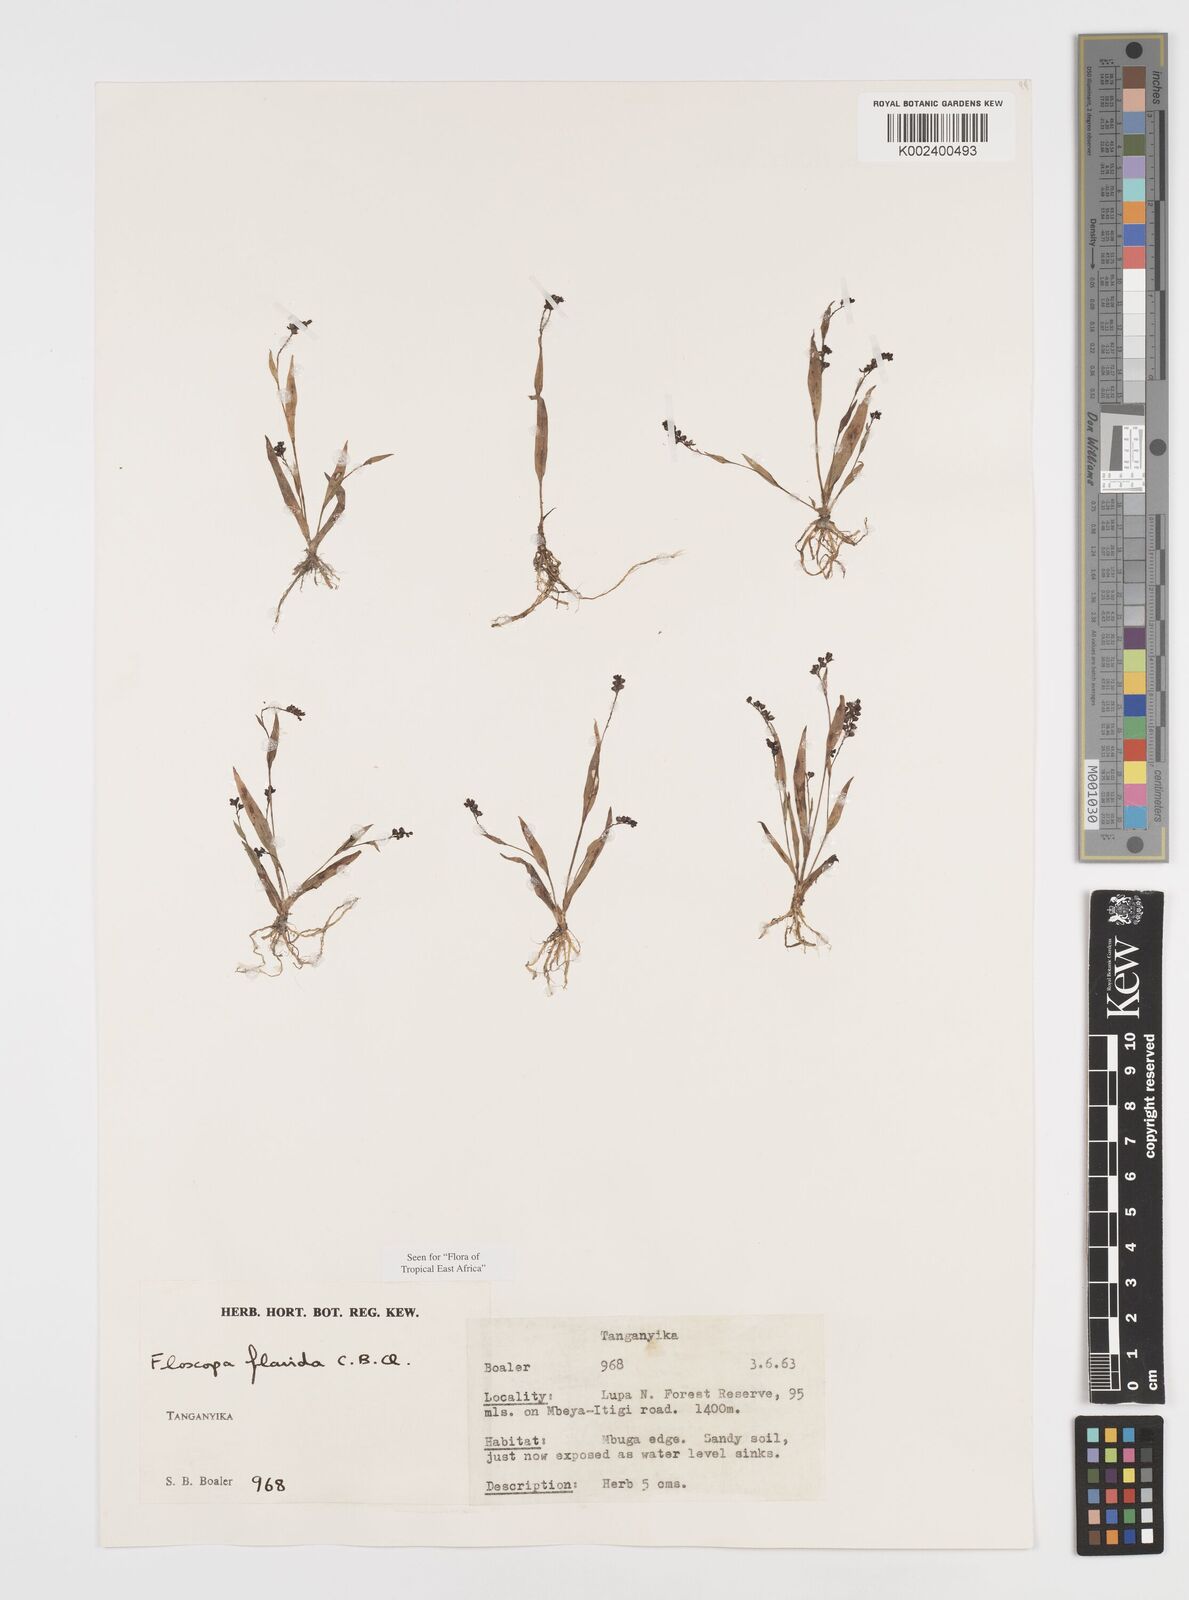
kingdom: Plantae
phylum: Tracheophyta
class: Liliopsida
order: Commelinales
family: Commelinaceae
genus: Floscopa
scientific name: Floscopa flavida
